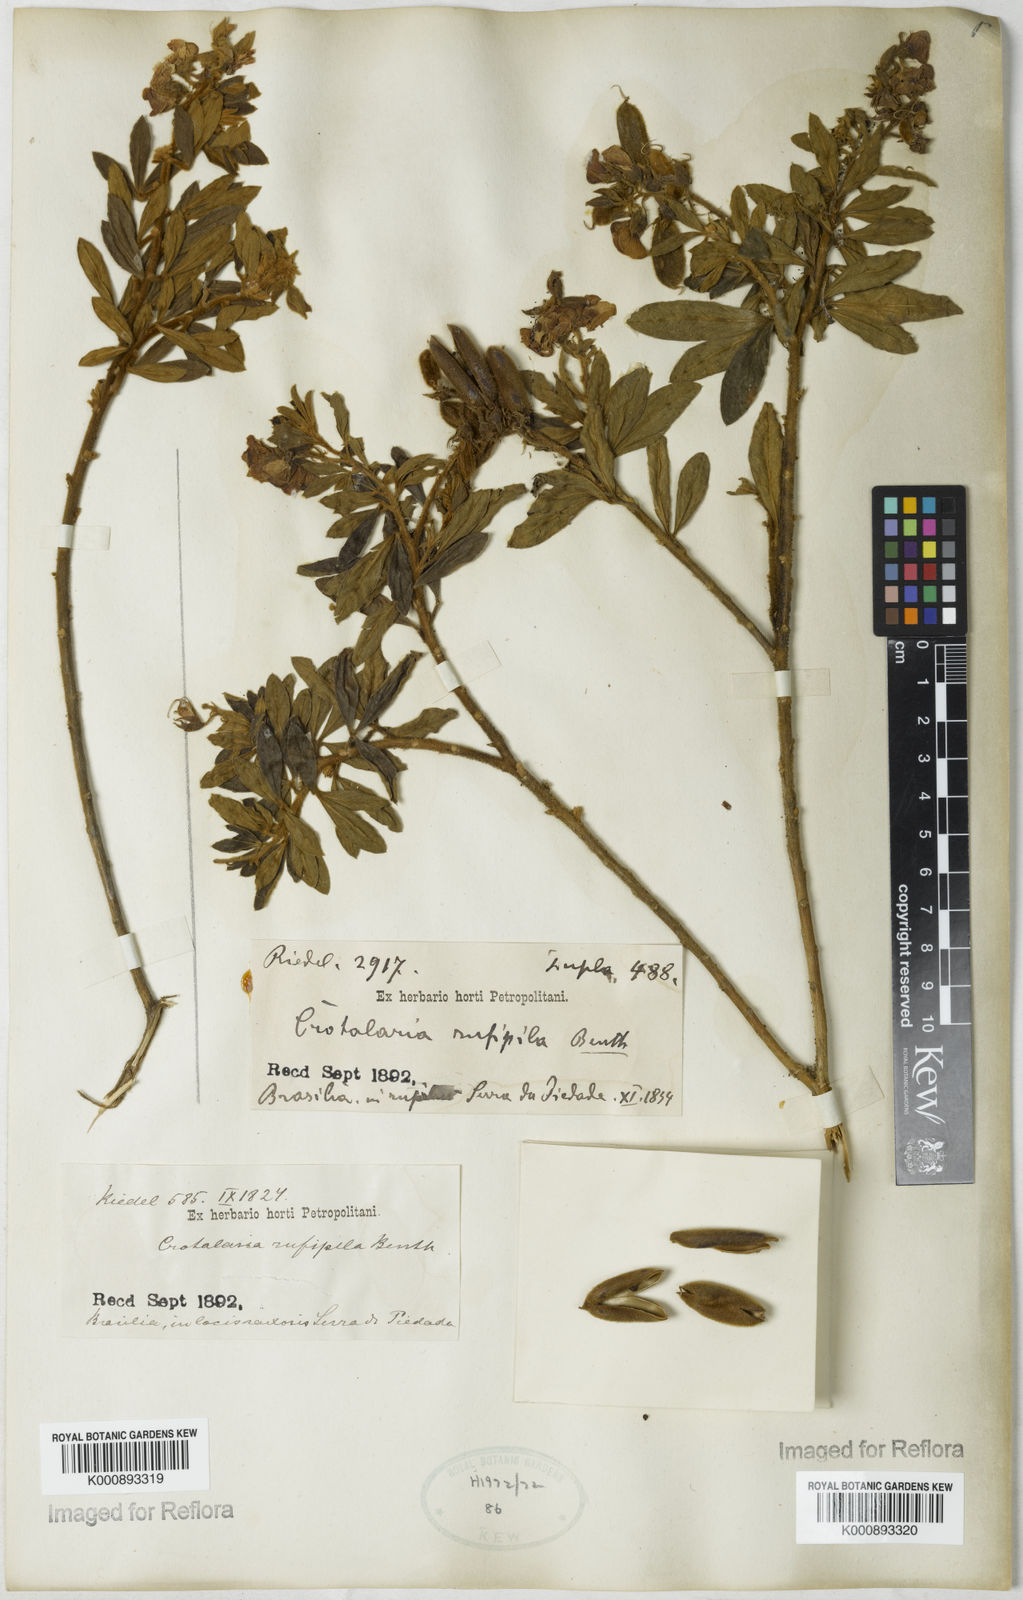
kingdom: Plantae
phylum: Tracheophyta
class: Magnoliopsida
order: Fabales
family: Fabaceae
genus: Crotalaria
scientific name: Crotalaria rufipila
